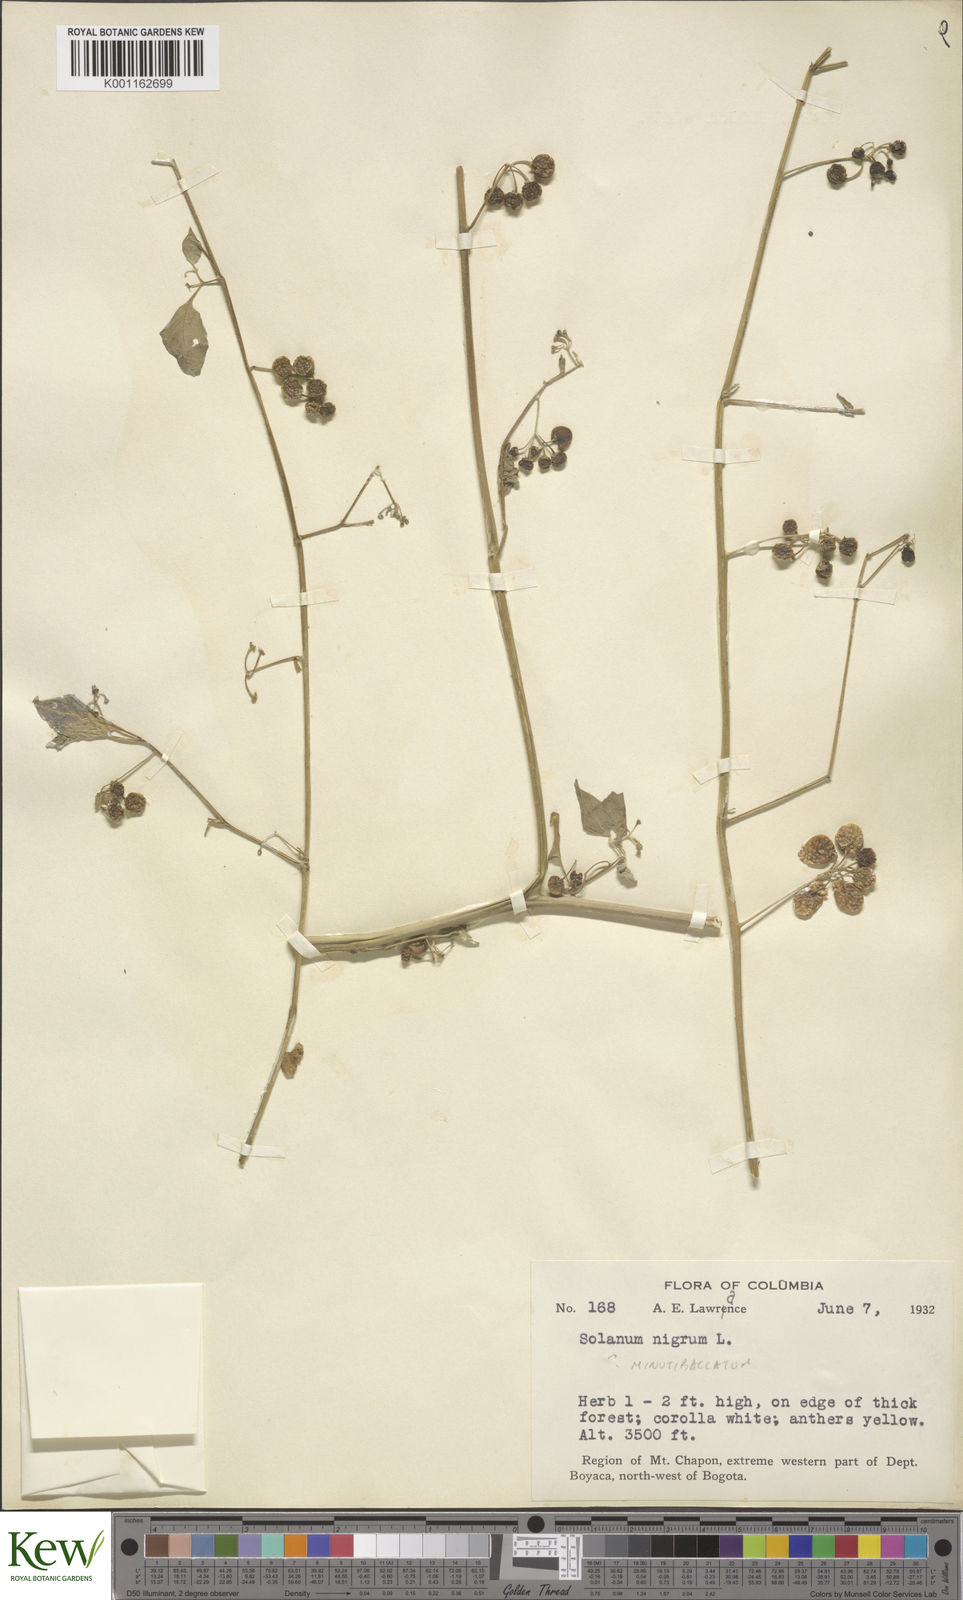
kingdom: Plantae
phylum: Tracheophyta
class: Magnoliopsida
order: Solanales
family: Solanaceae
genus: Solanum
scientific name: Solanum americanum
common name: American black nightshade
